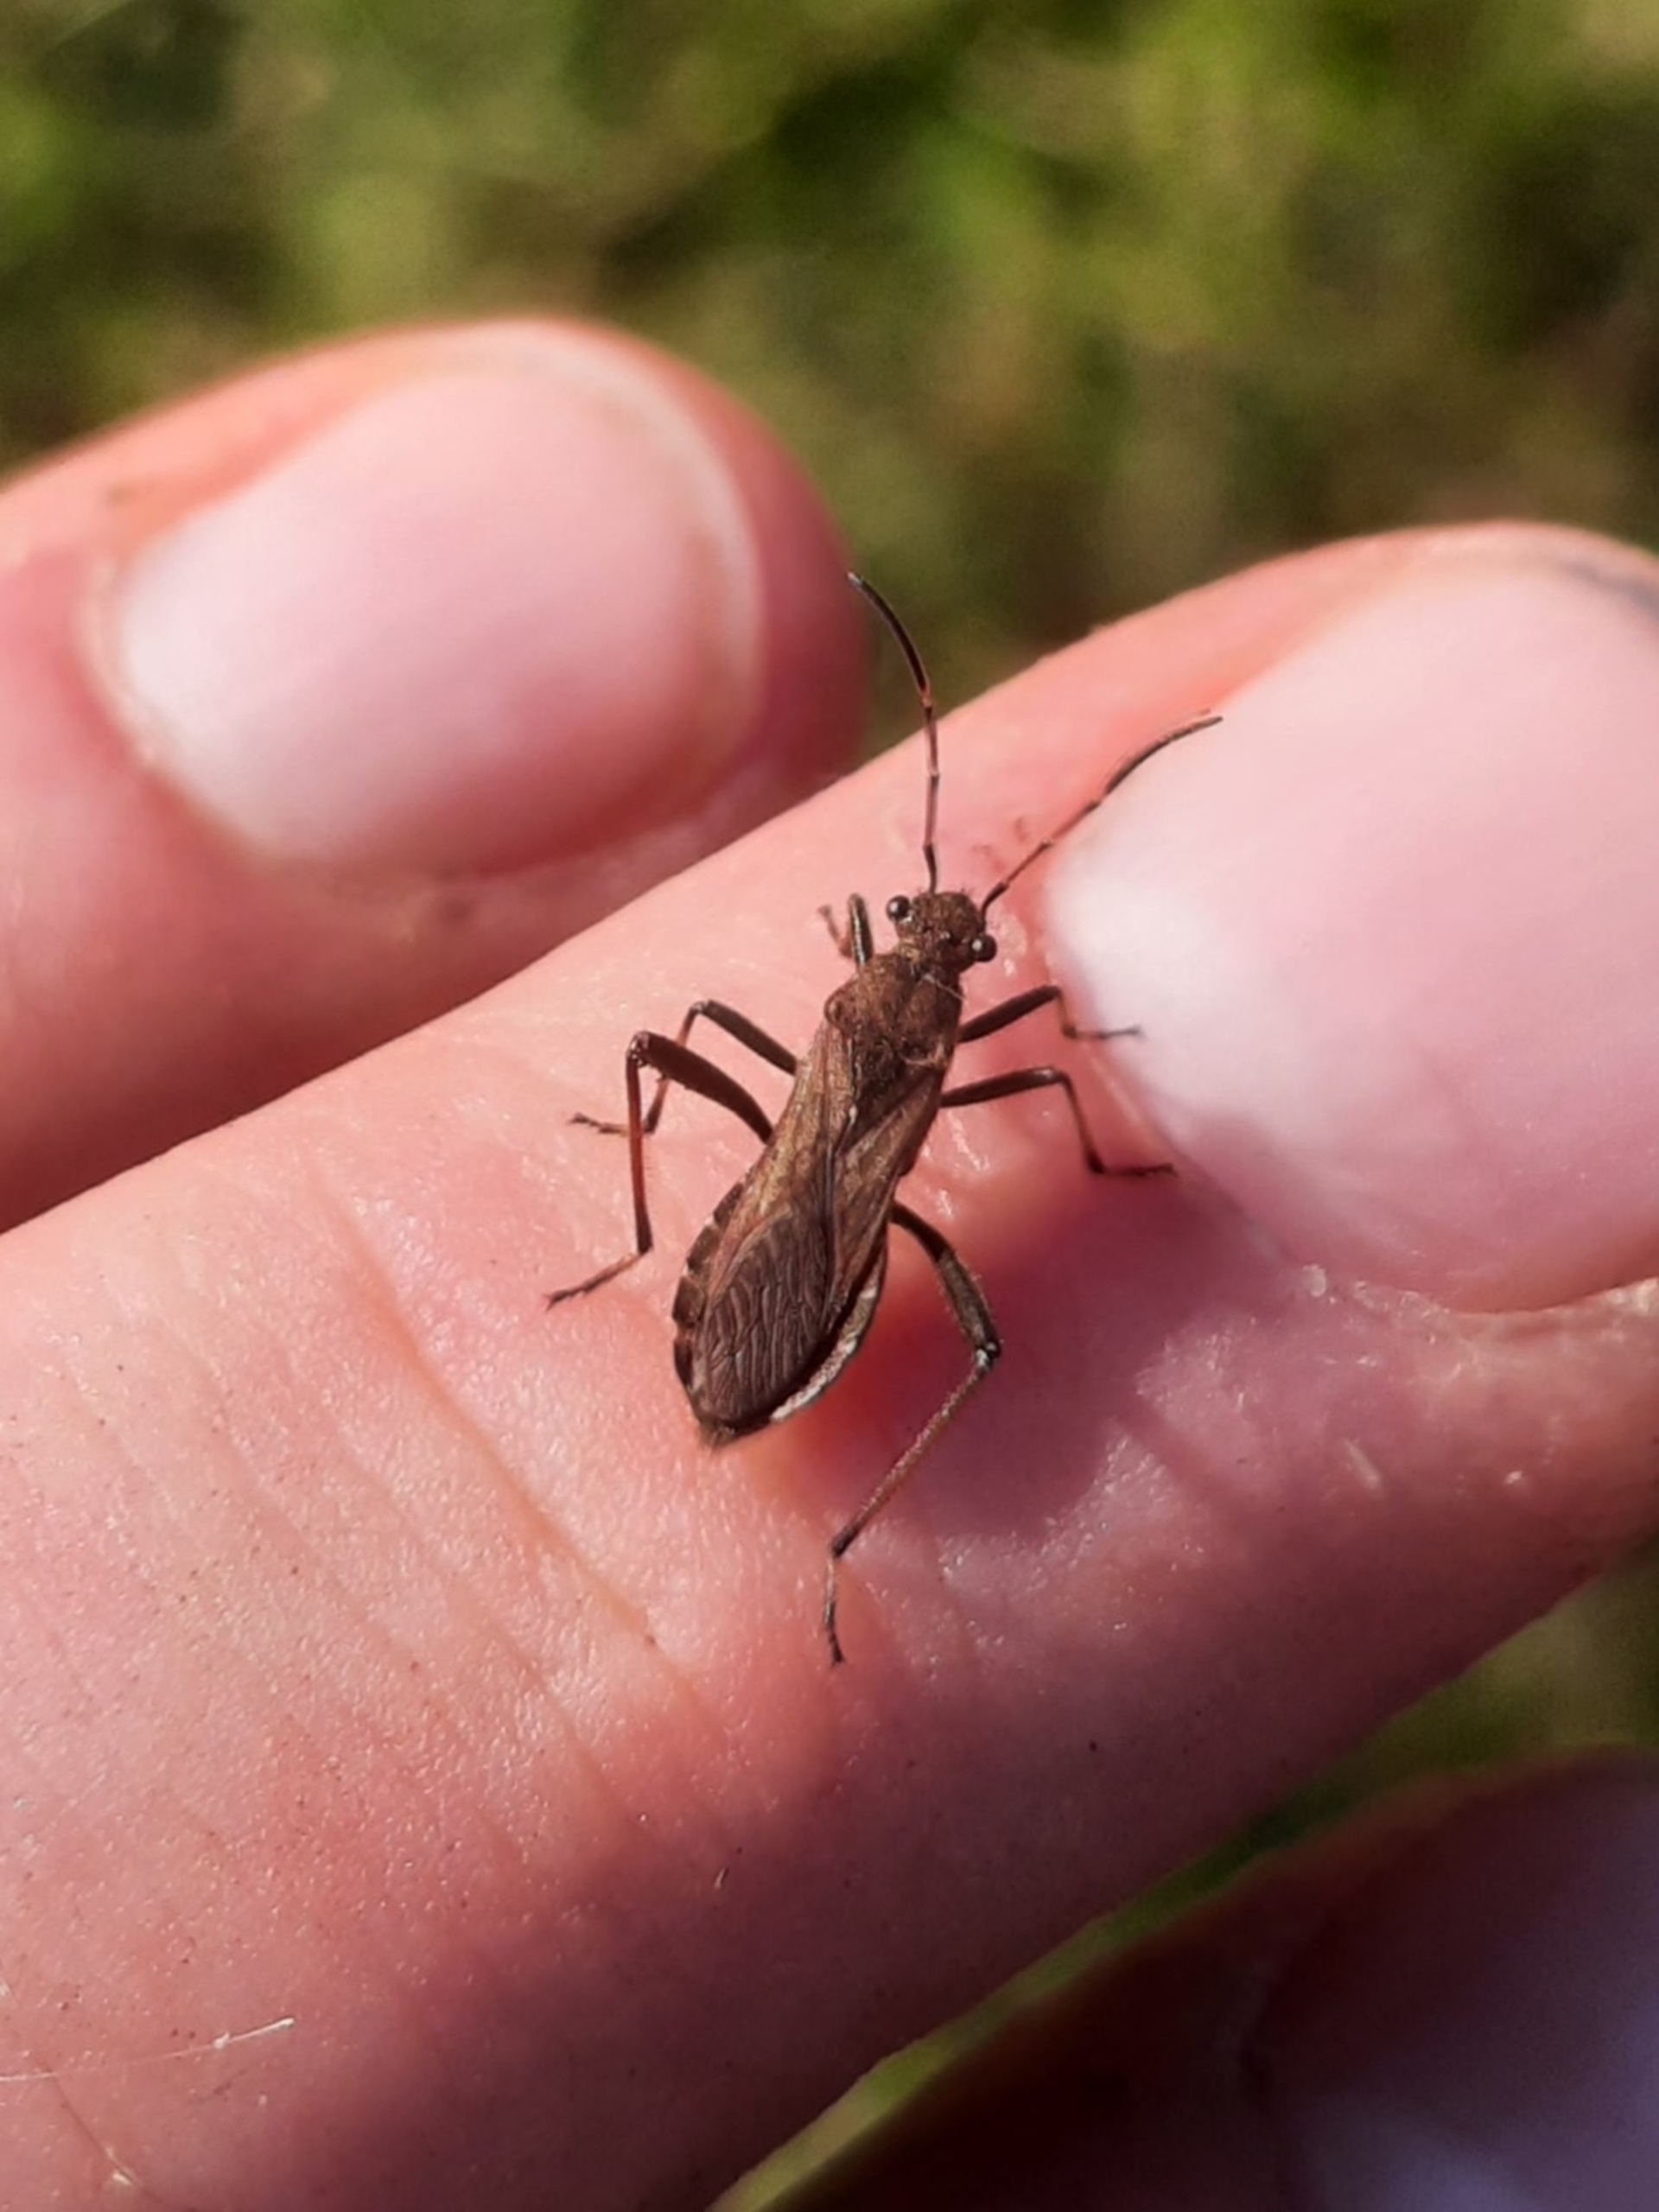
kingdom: Animalia
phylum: Arthropoda
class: Insecta
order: Hemiptera
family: Alydidae
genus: Alydus
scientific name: Alydus calcaratus
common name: Hvepsetæge
